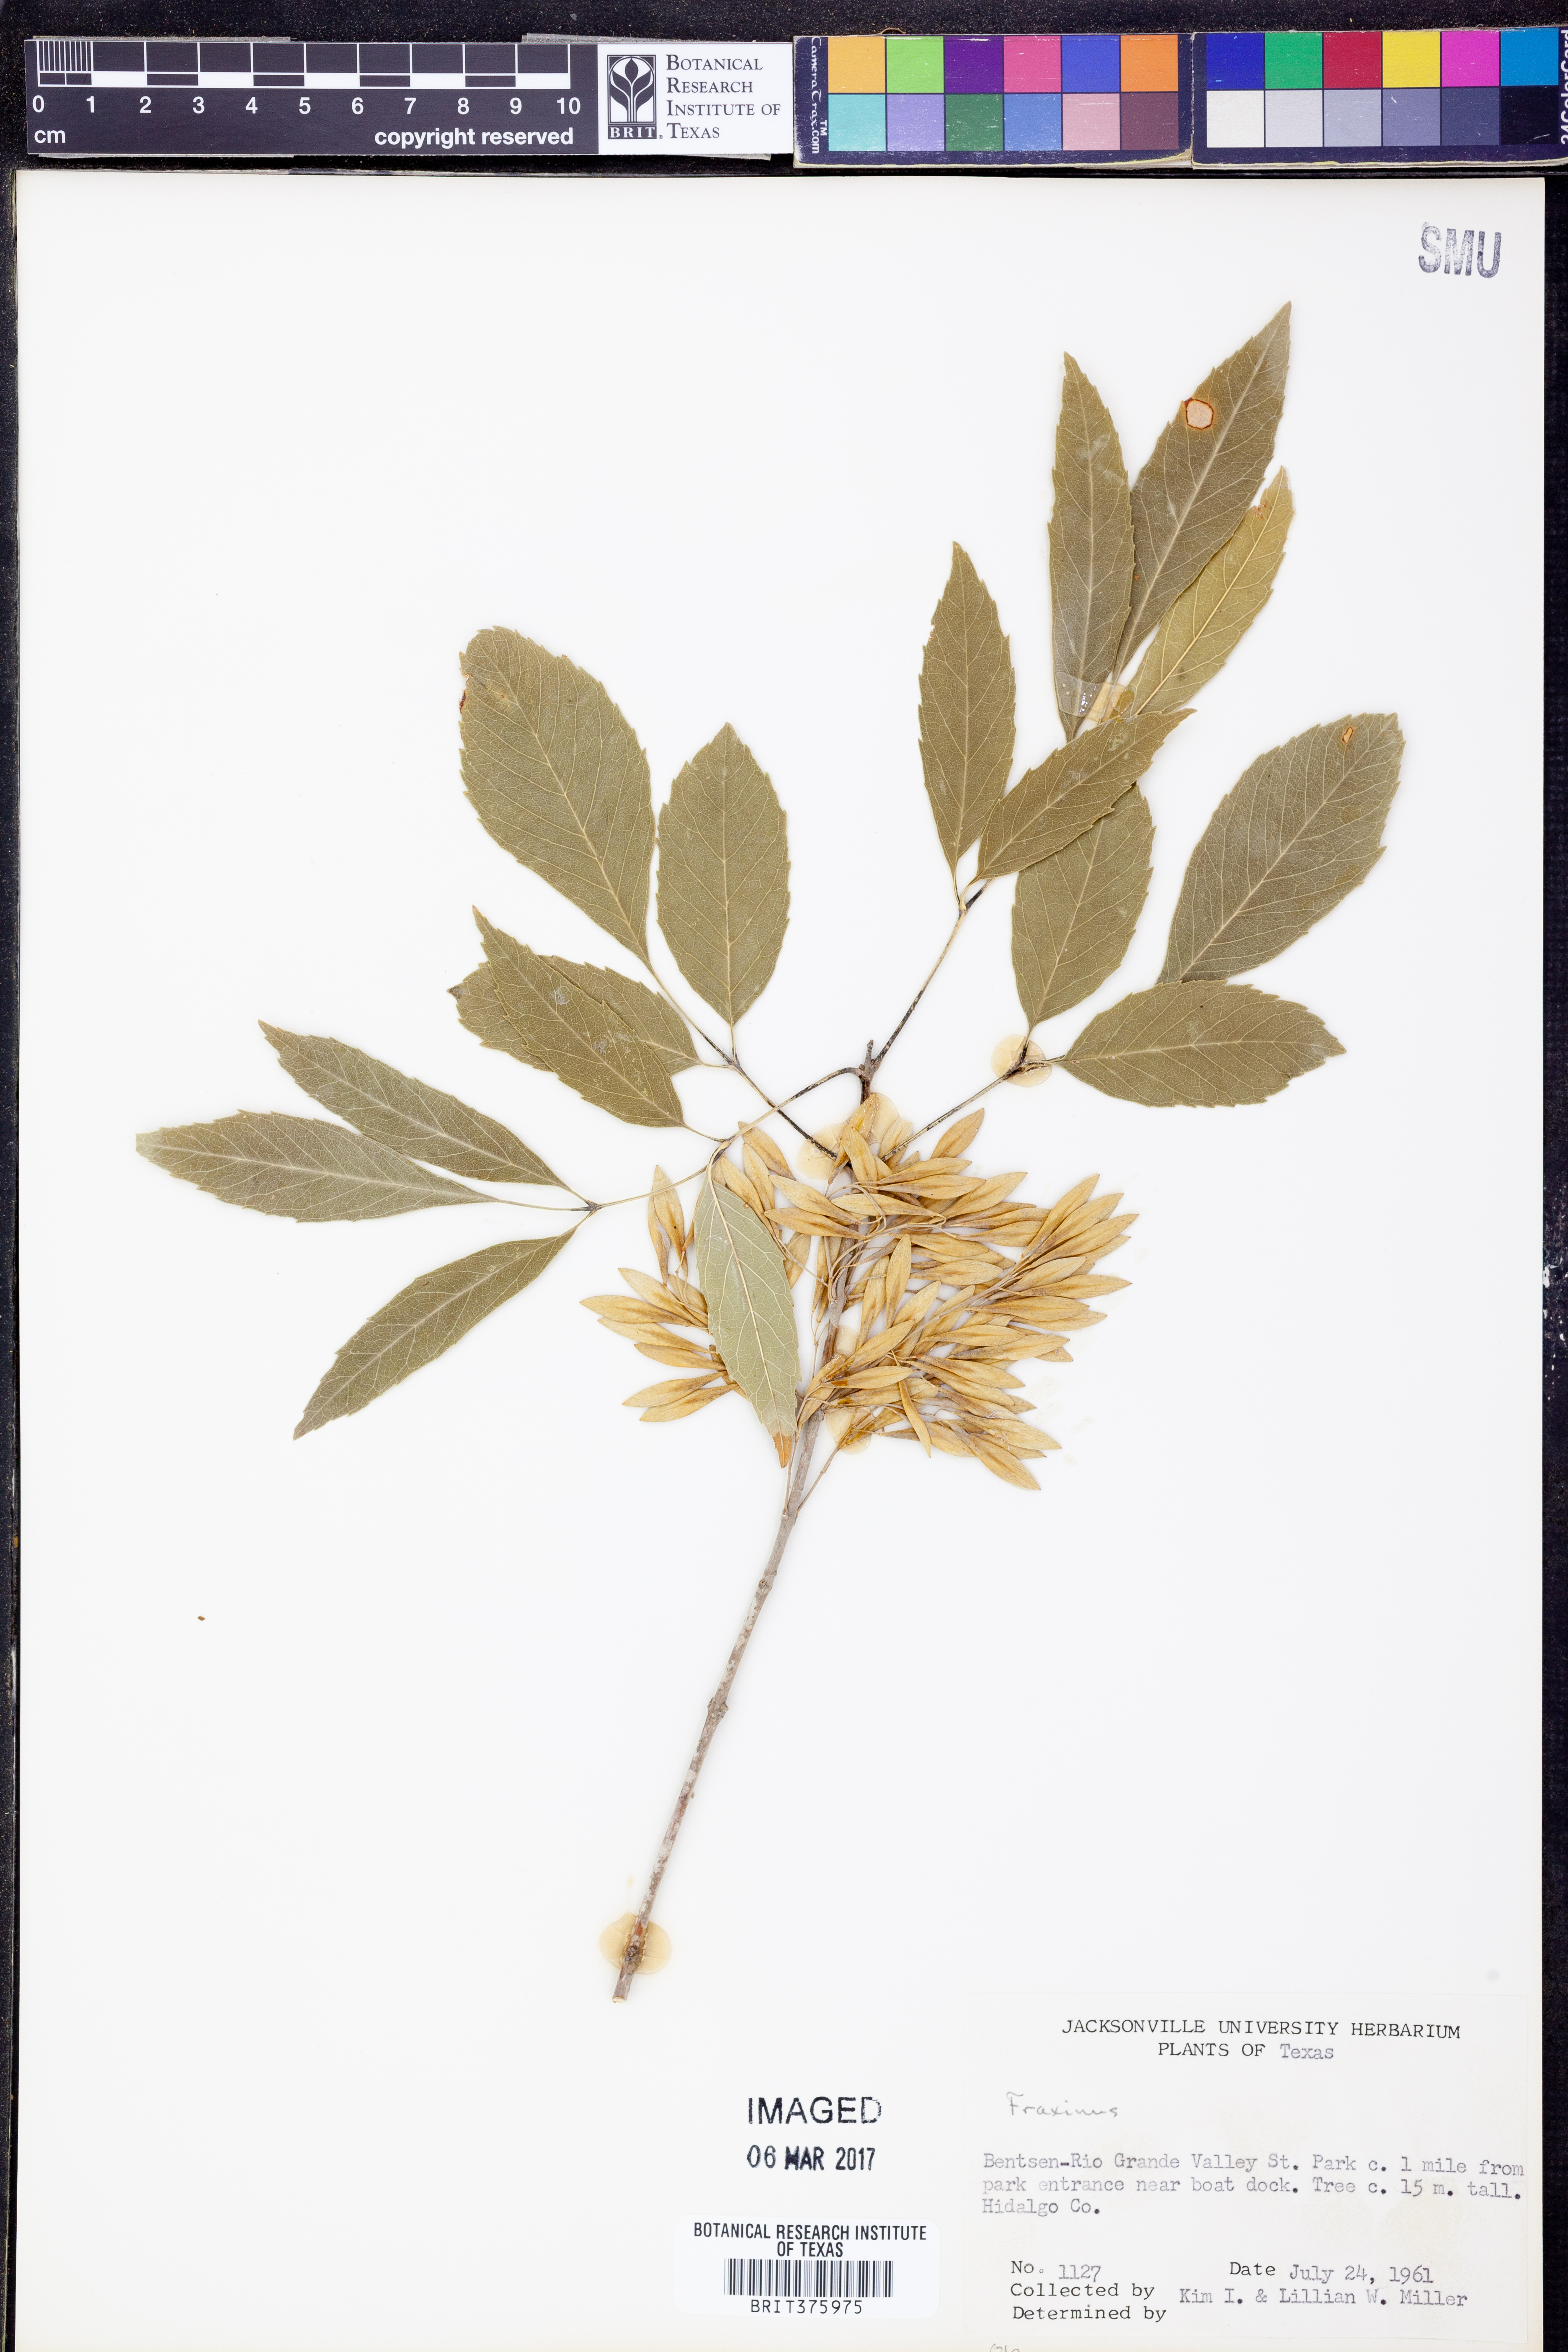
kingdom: Plantae
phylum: Tracheophyta
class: Magnoliopsida
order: Lamiales
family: Oleaceae
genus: Fraxinus
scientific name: Fraxinus
